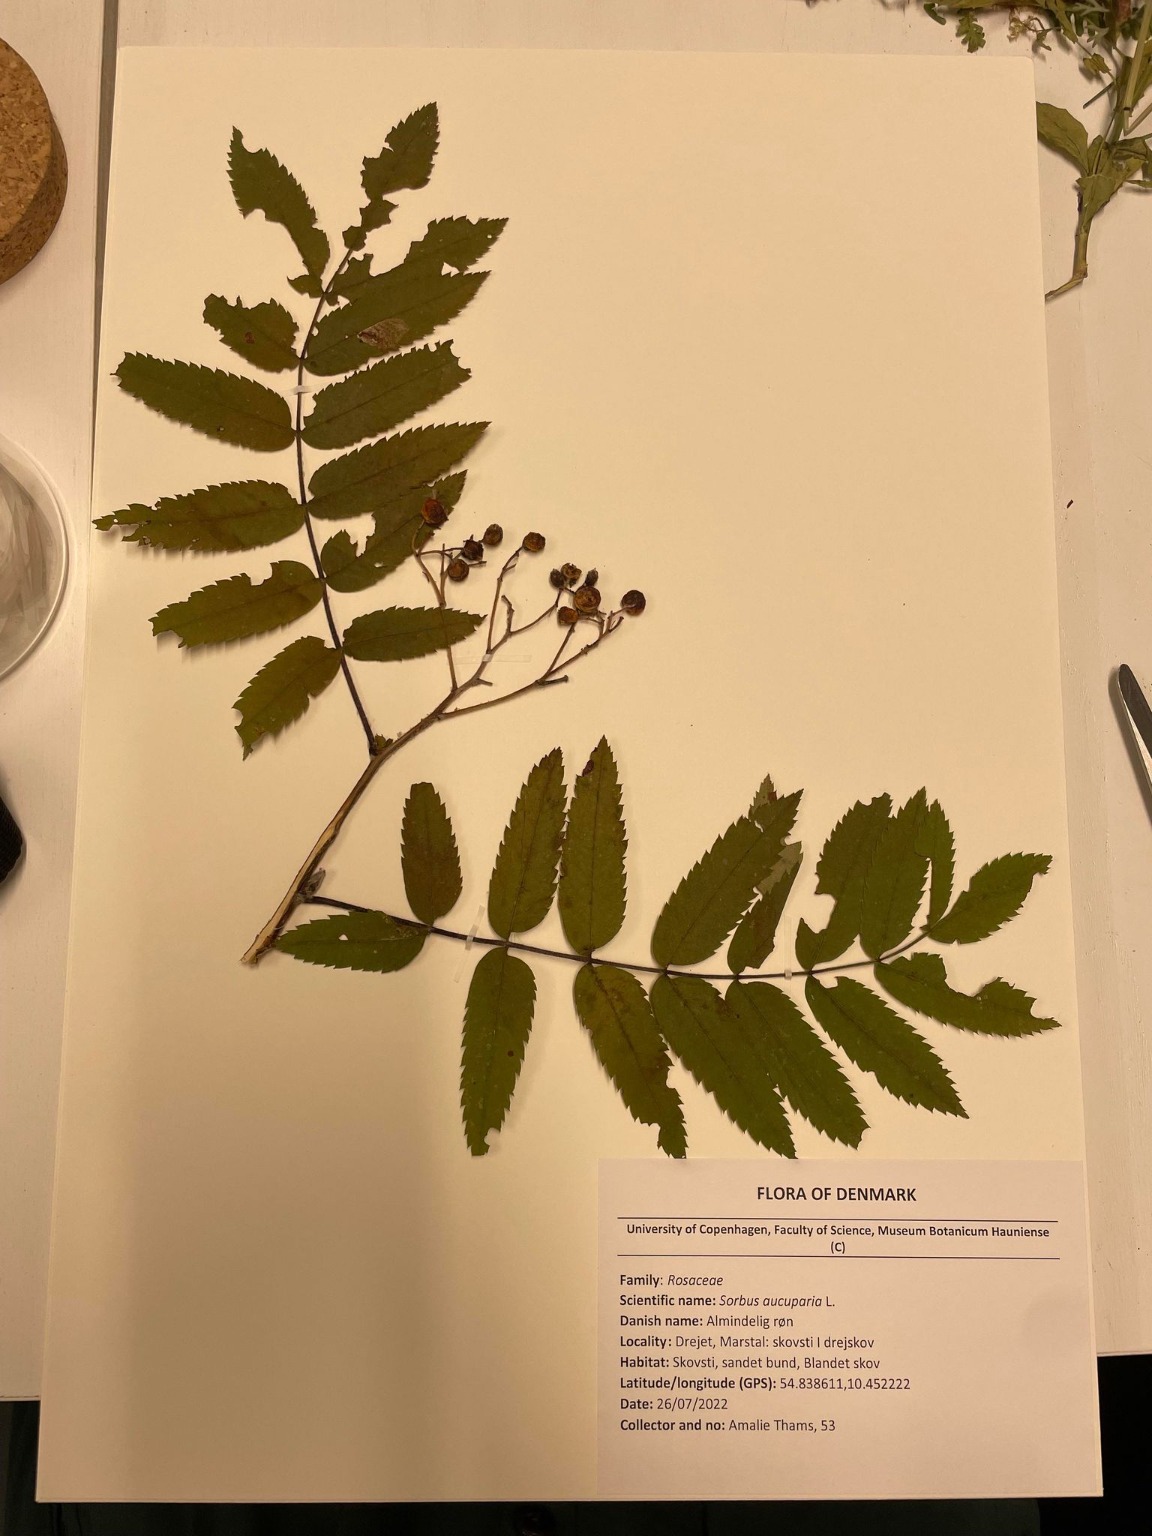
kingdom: Plantae
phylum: Tracheophyta
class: Magnoliopsida
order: Rosales
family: Rosaceae
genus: Sorbus
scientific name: Sorbus aucuparia
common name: Almindelig røn
